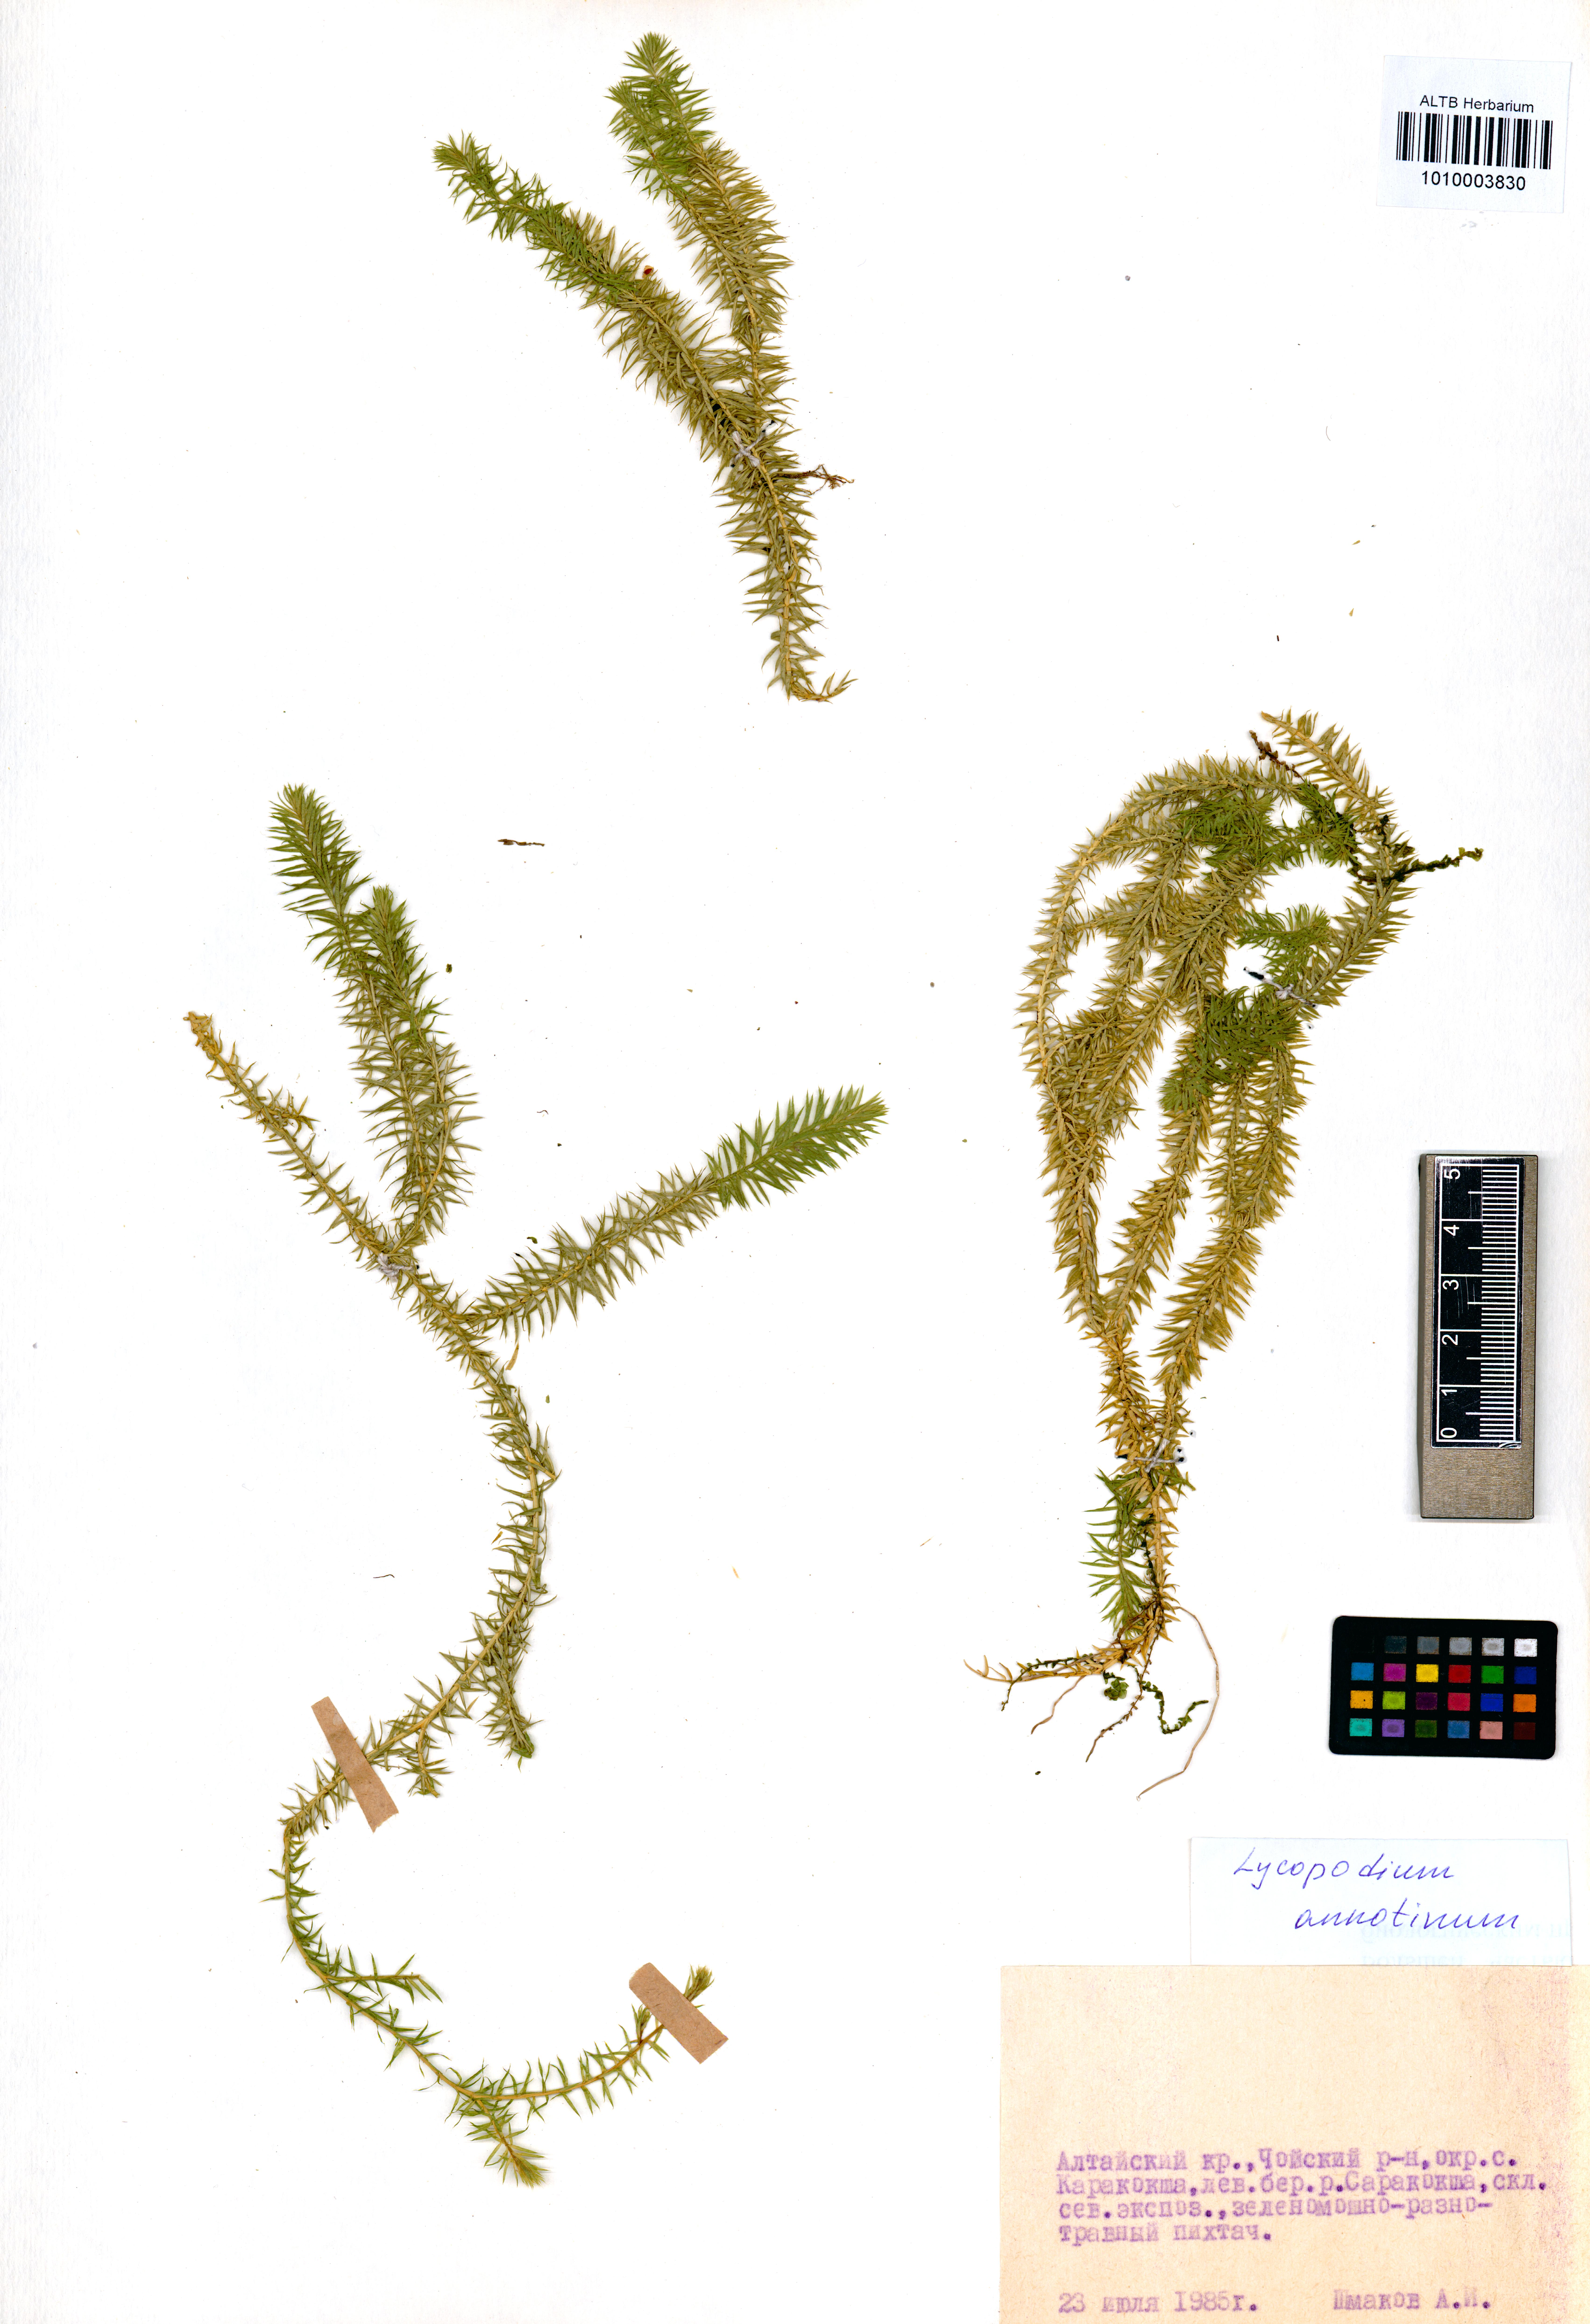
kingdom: Plantae
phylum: Tracheophyta
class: Lycopodiopsida
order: Lycopodiales
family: Lycopodiaceae
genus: Spinulum
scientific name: Spinulum annotinum
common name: Interrupted club-moss
